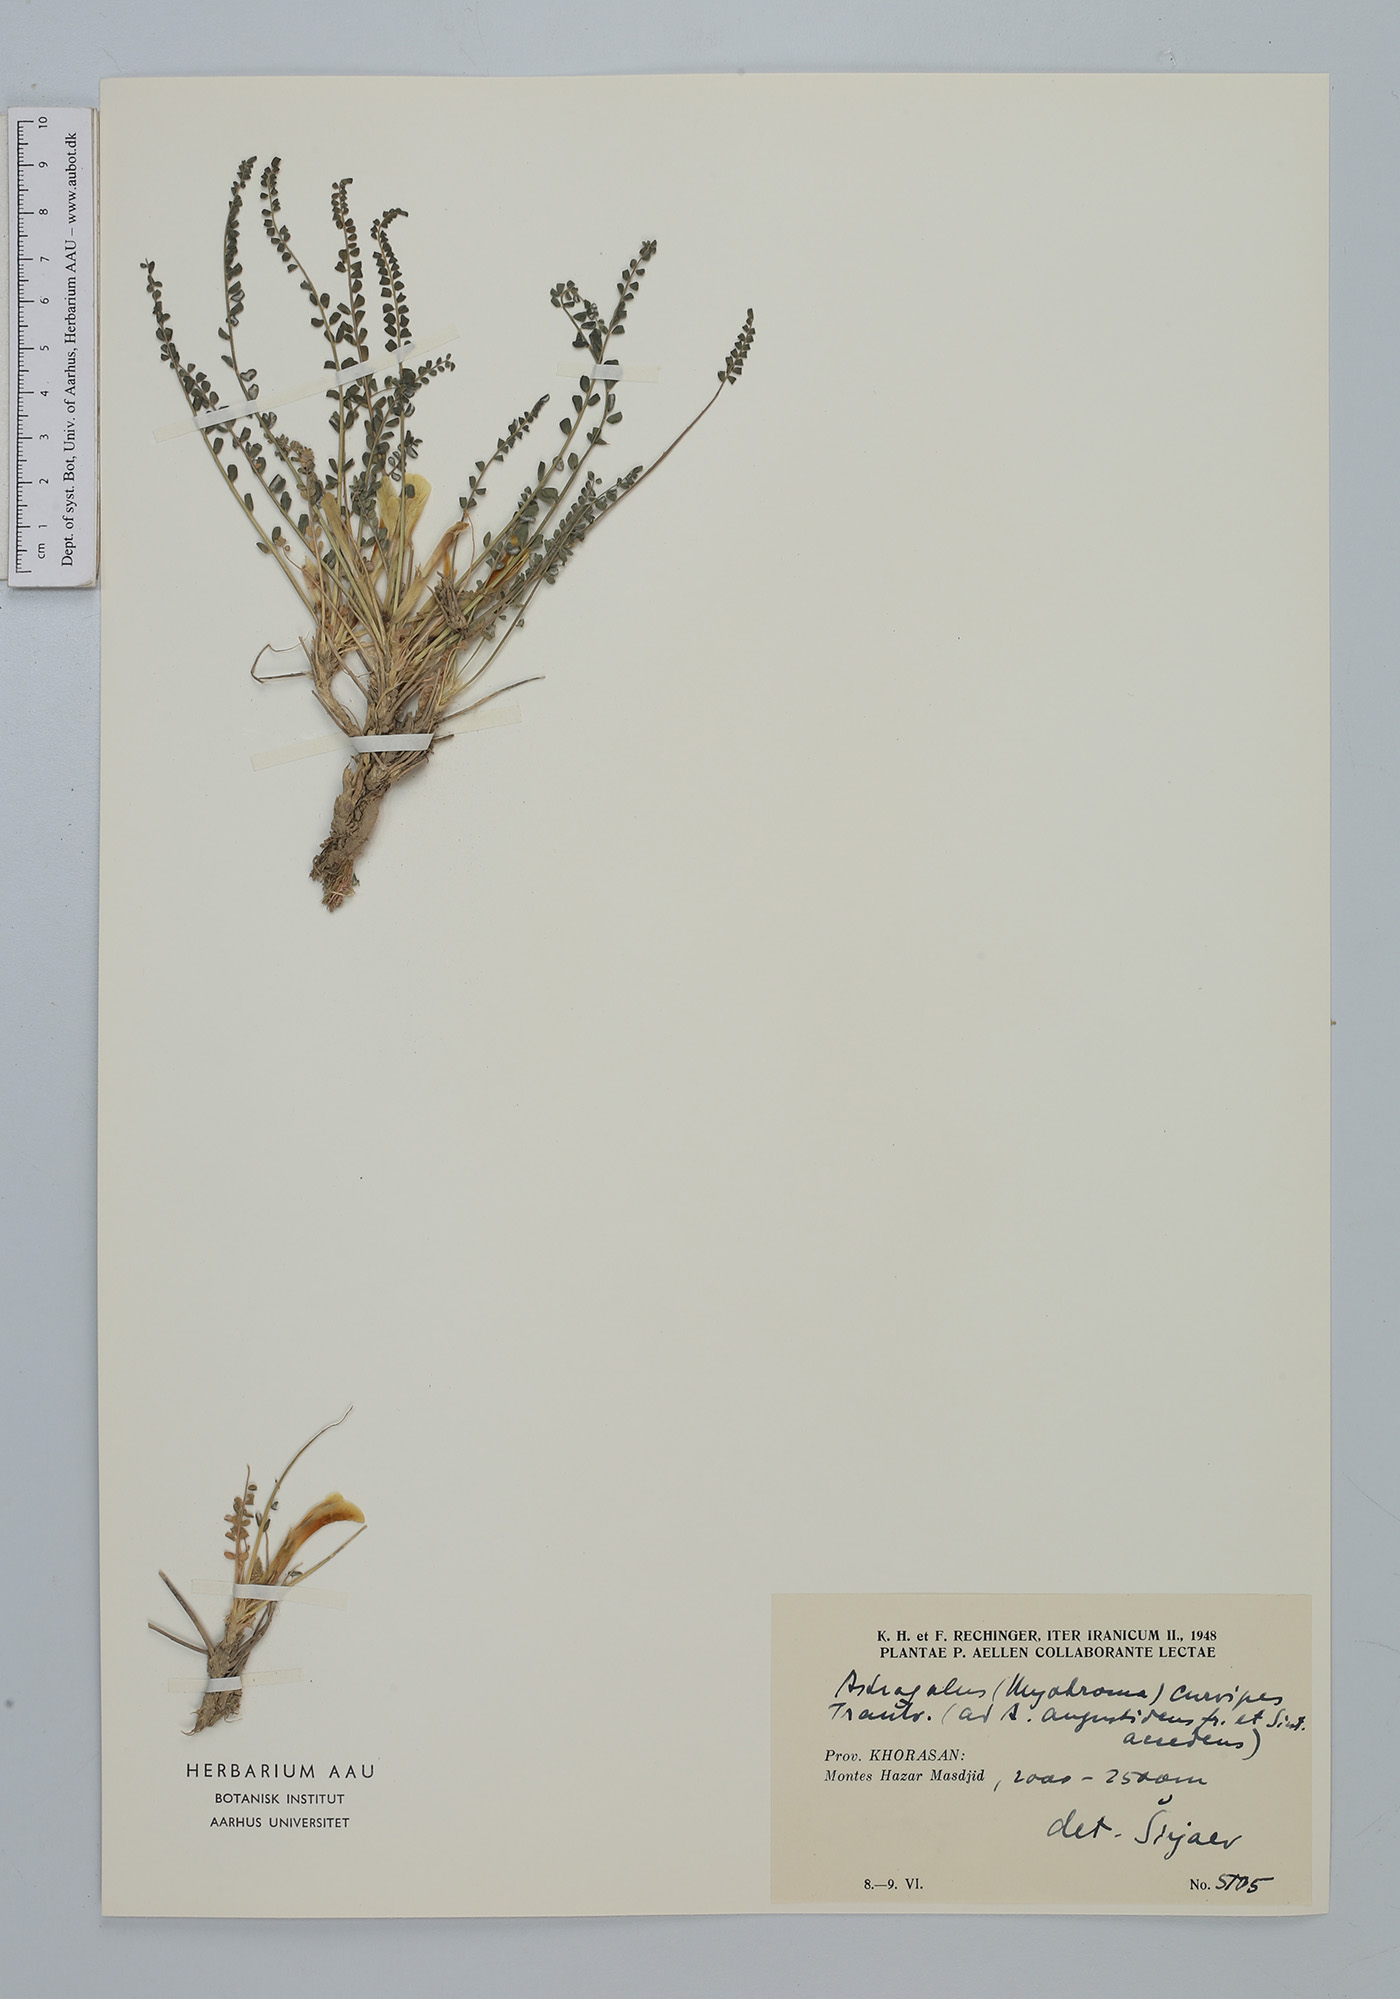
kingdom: Plantae
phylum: Tracheophyta
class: Magnoliopsida
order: Fabales
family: Fabaceae
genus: Astragalus
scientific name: Astragalus curvipes
